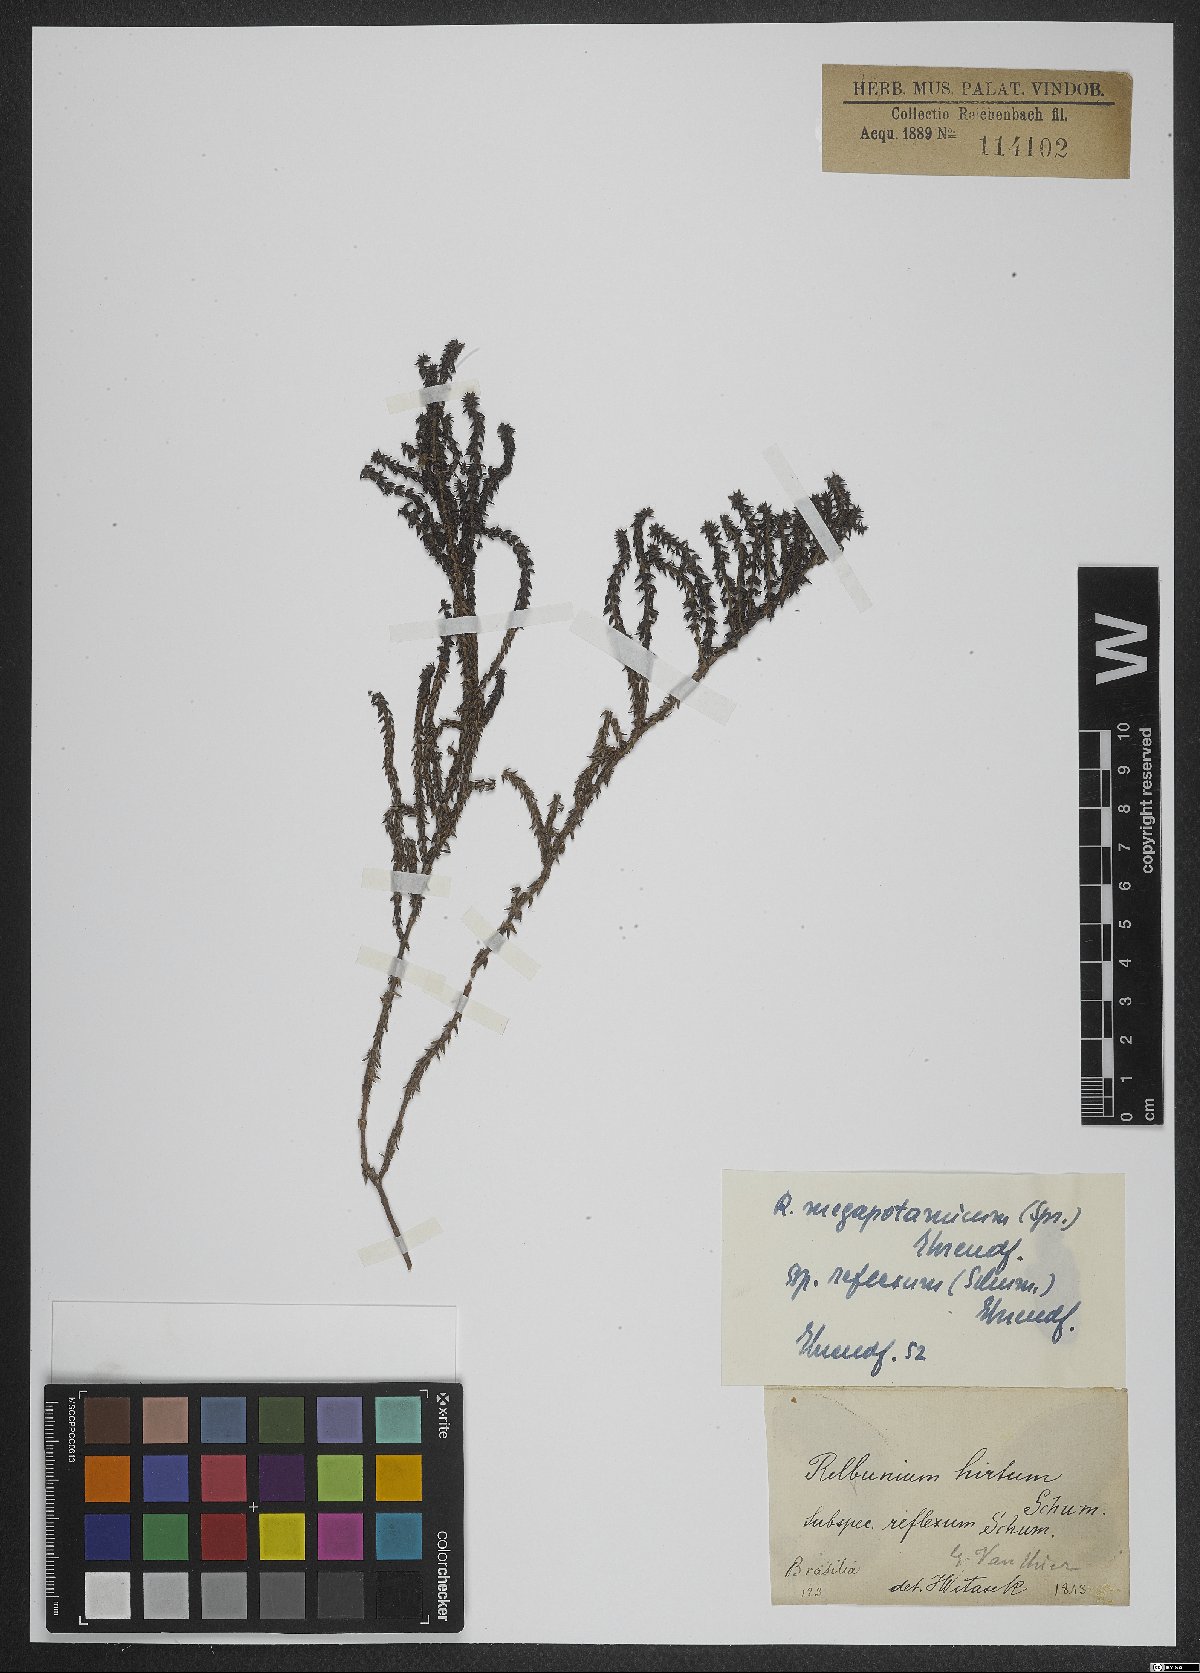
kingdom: Plantae
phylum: Tracheophyta
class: Magnoliopsida
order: Gentianales
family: Rubiaceae
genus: Galium
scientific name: Galium megapotamicum
